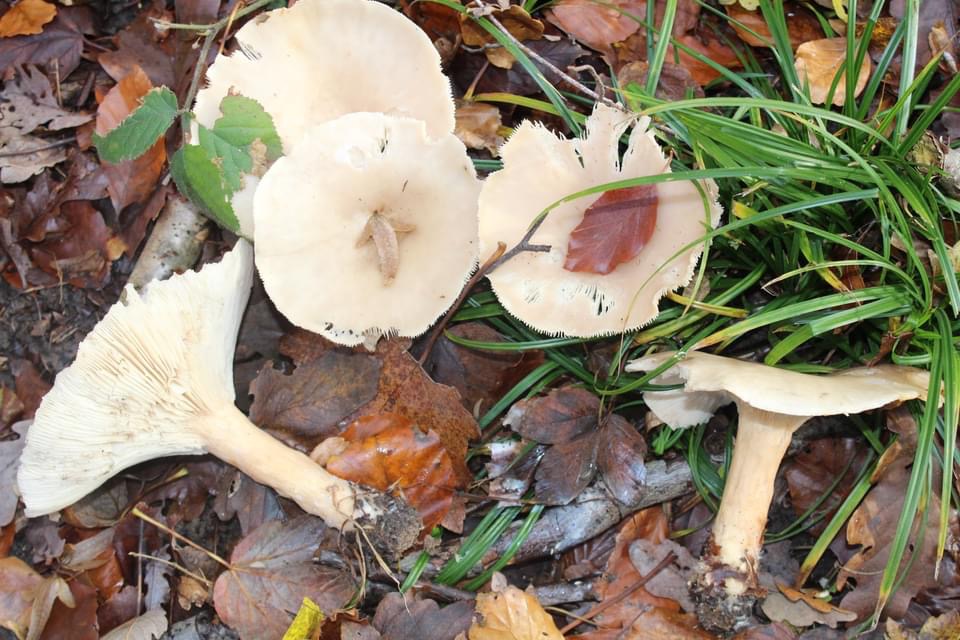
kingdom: Fungi
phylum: Basidiomycota
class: Agaricomycetes
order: Agaricales
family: Tricholomataceae
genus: Infundibulicybe
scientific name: Infundibulicybe geotropa
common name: stor tragthat
